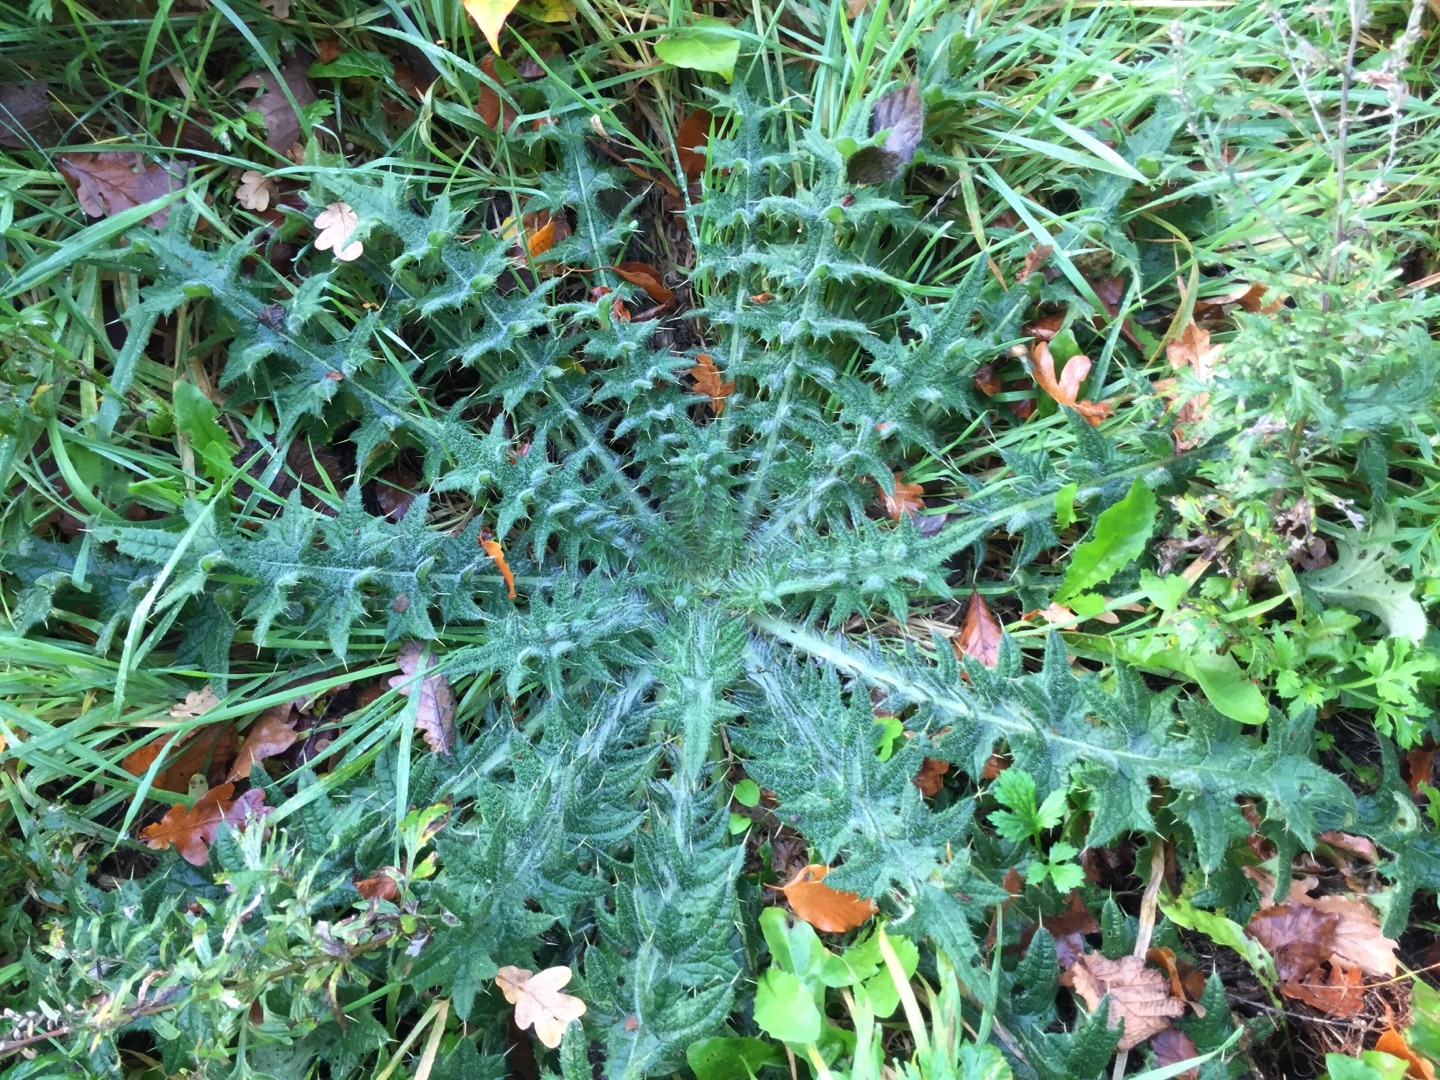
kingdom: Plantae
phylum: Tracheophyta
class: Magnoliopsida
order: Asterales
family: Asteraceae
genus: Cirsium
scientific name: Cirsium vulgare
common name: Horse-tidsel
